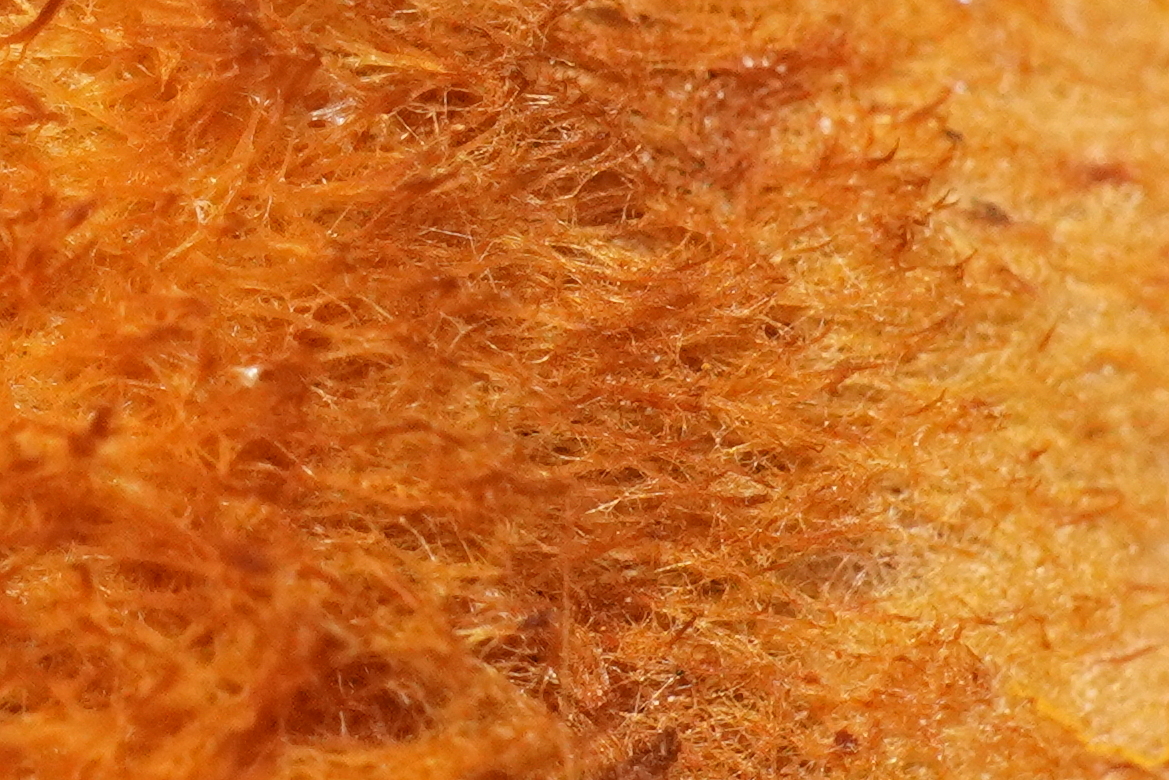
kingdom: Fungi
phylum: Basidiomycota
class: Agaricomycetes
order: Hymenochaetales
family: Hymenochaetaceae
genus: Inonotus
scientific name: Inonotus cuticularis
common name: kroghåret spejlporesvamp
